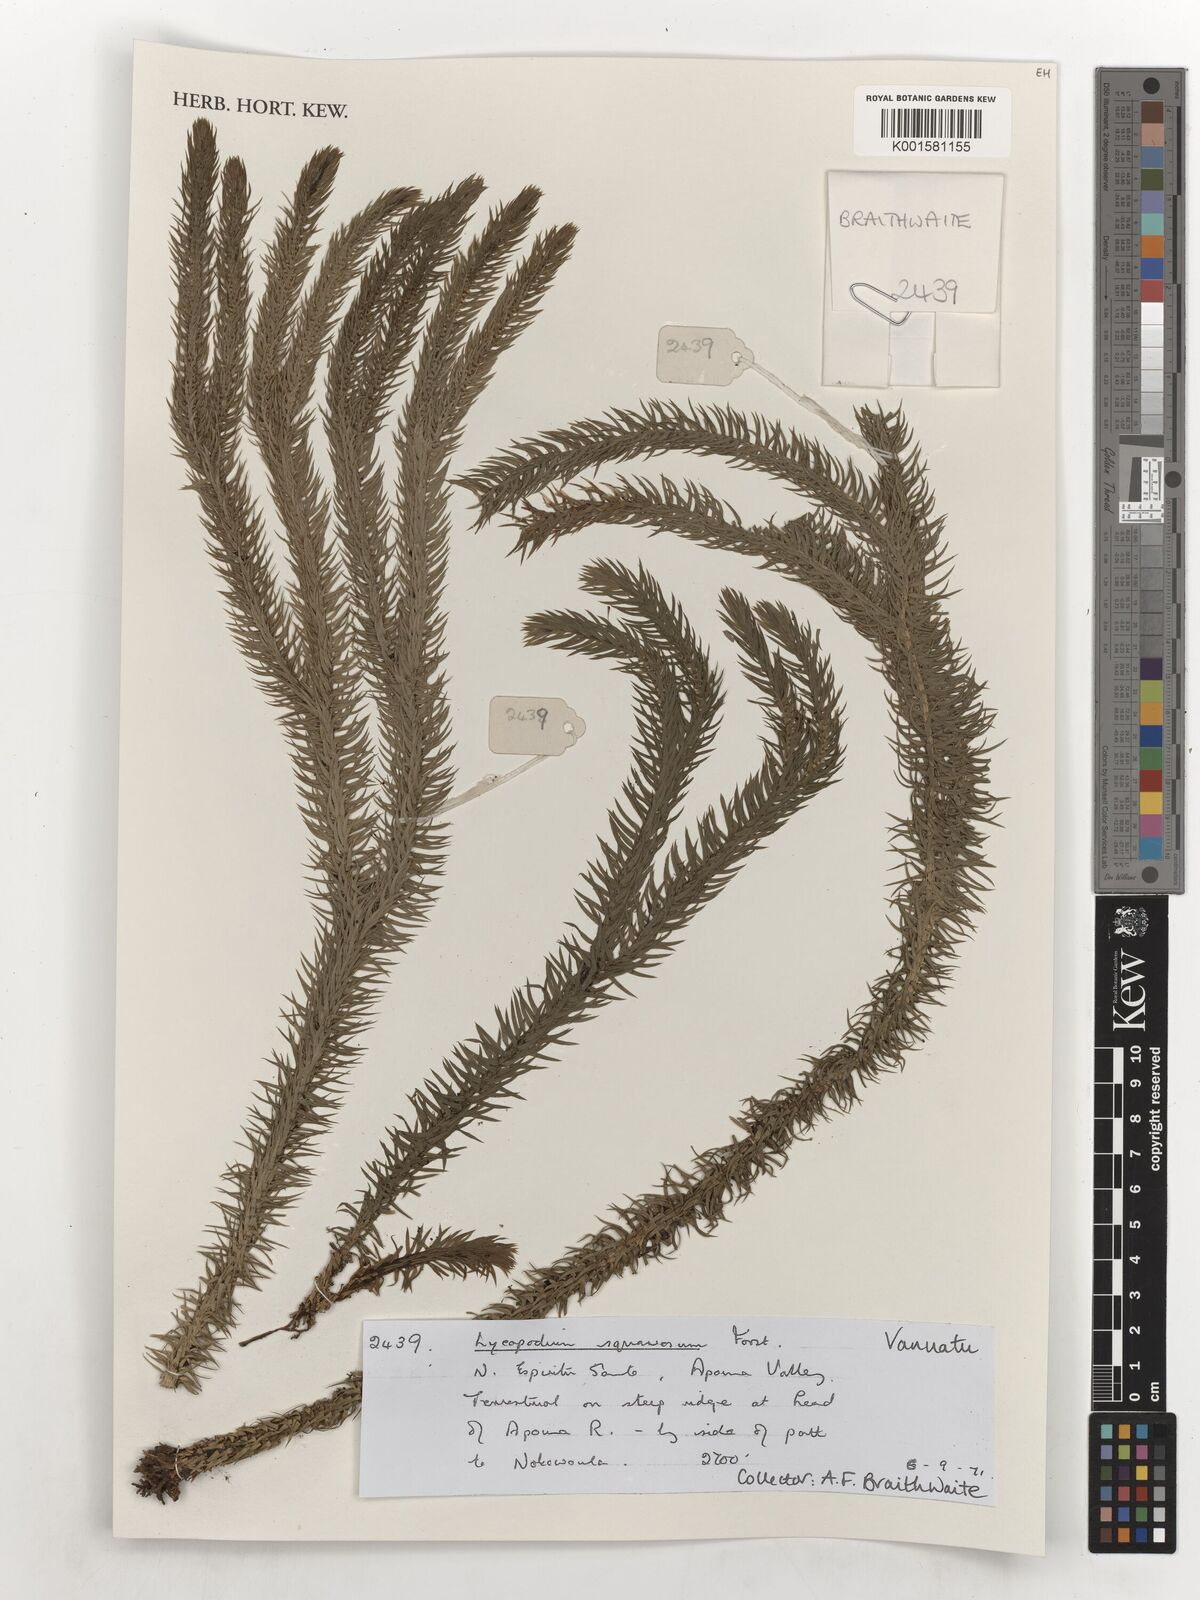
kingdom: Plantae
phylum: Tracheophyta
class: Lycopodiopsida
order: Lycopodiales
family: Lycopodiaceae
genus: Phlegmariurus
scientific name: Phlegmariurus squarrosus
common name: Rock tassel-fern
